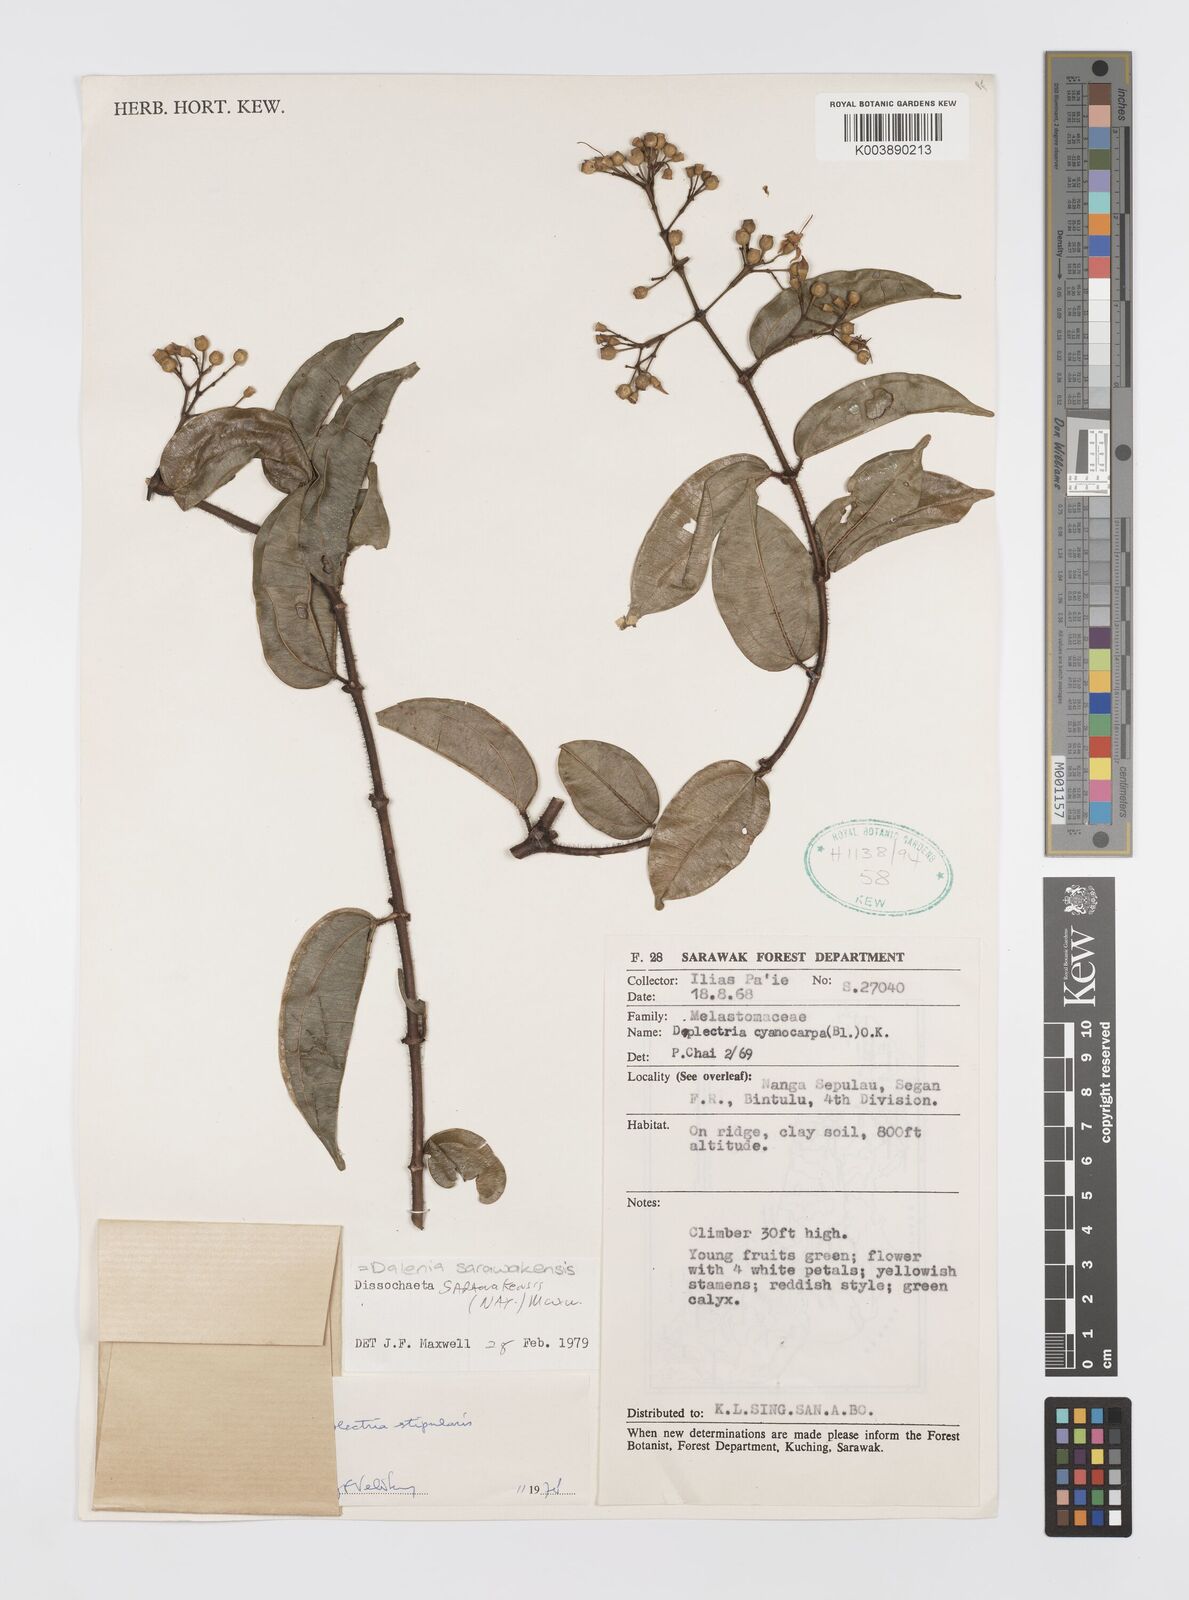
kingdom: Plantae
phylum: Tracheophyta
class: Magnoliopsida
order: Myrtales
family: Melastomataceae
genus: Dalenia
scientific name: Dalenia
